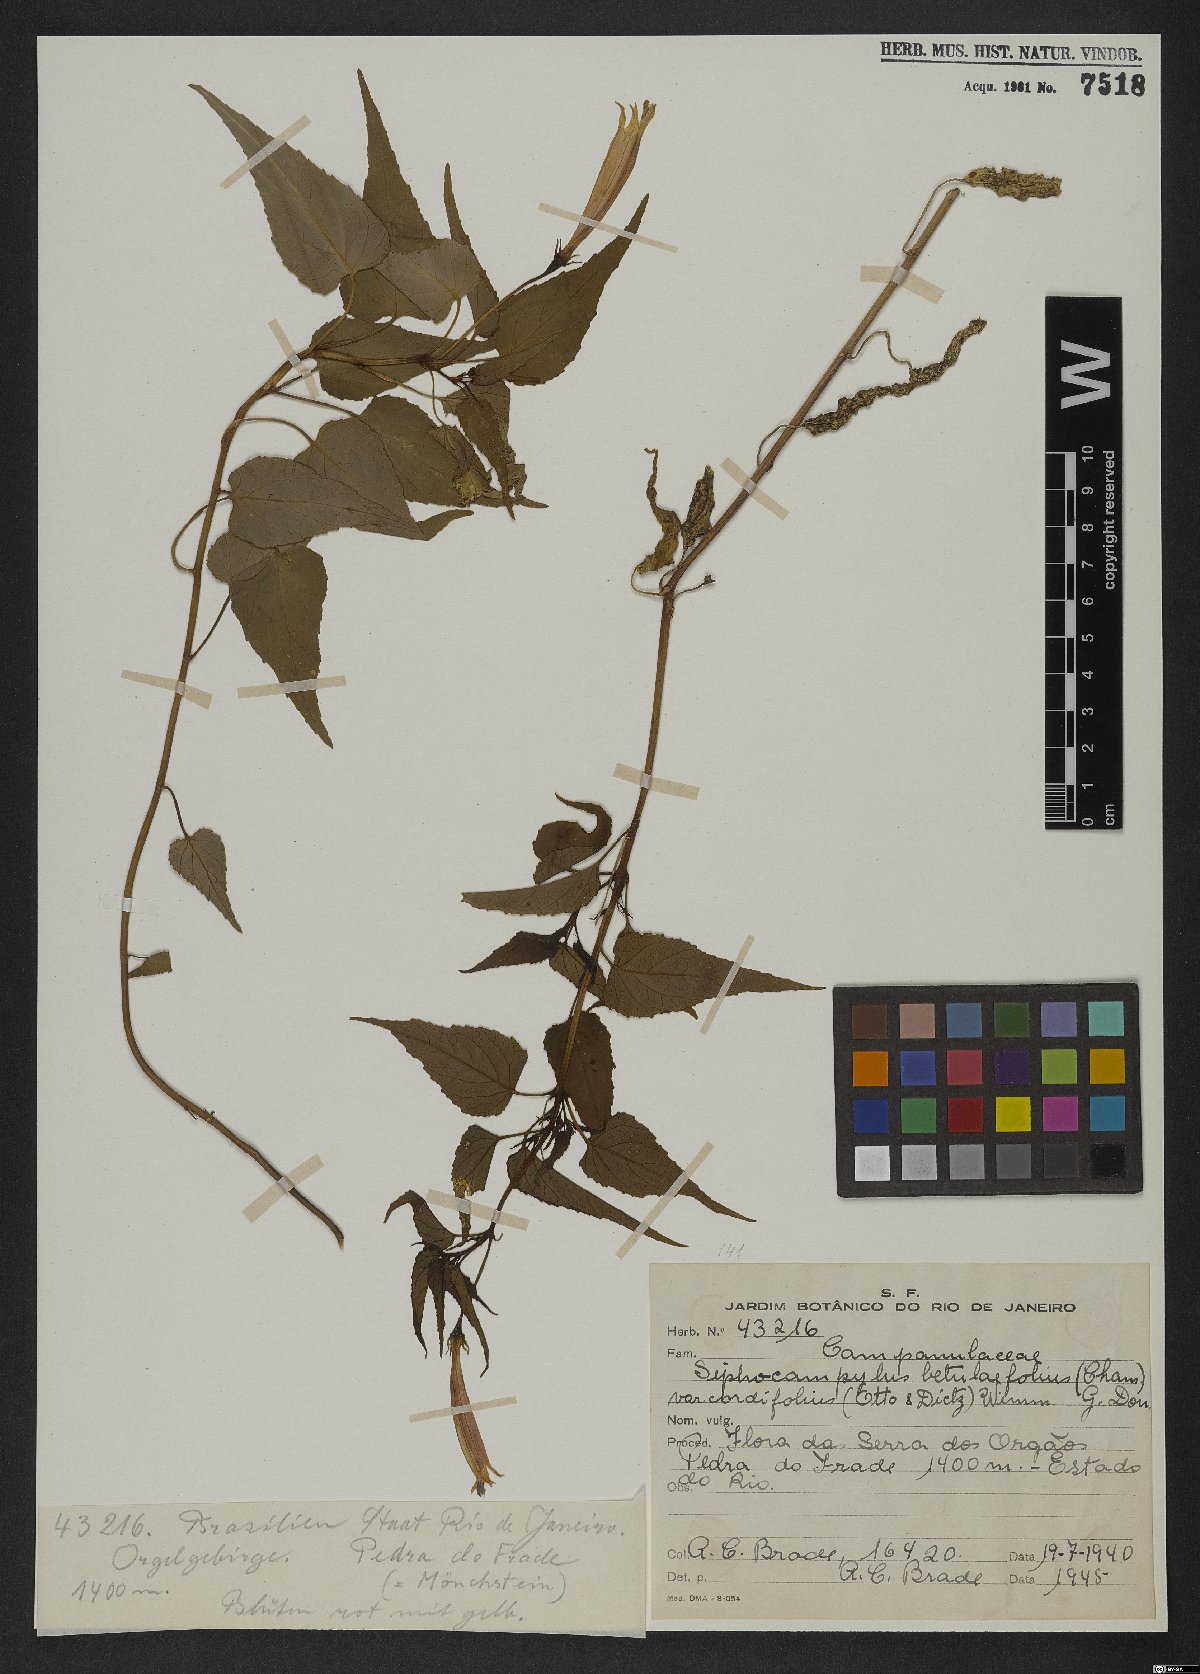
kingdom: Plantae
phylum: Tracheophyta
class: Magnoliopsida
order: Asterales
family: Campanulaceae
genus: Siphocampylus
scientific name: Siphocampylus betulifolius
